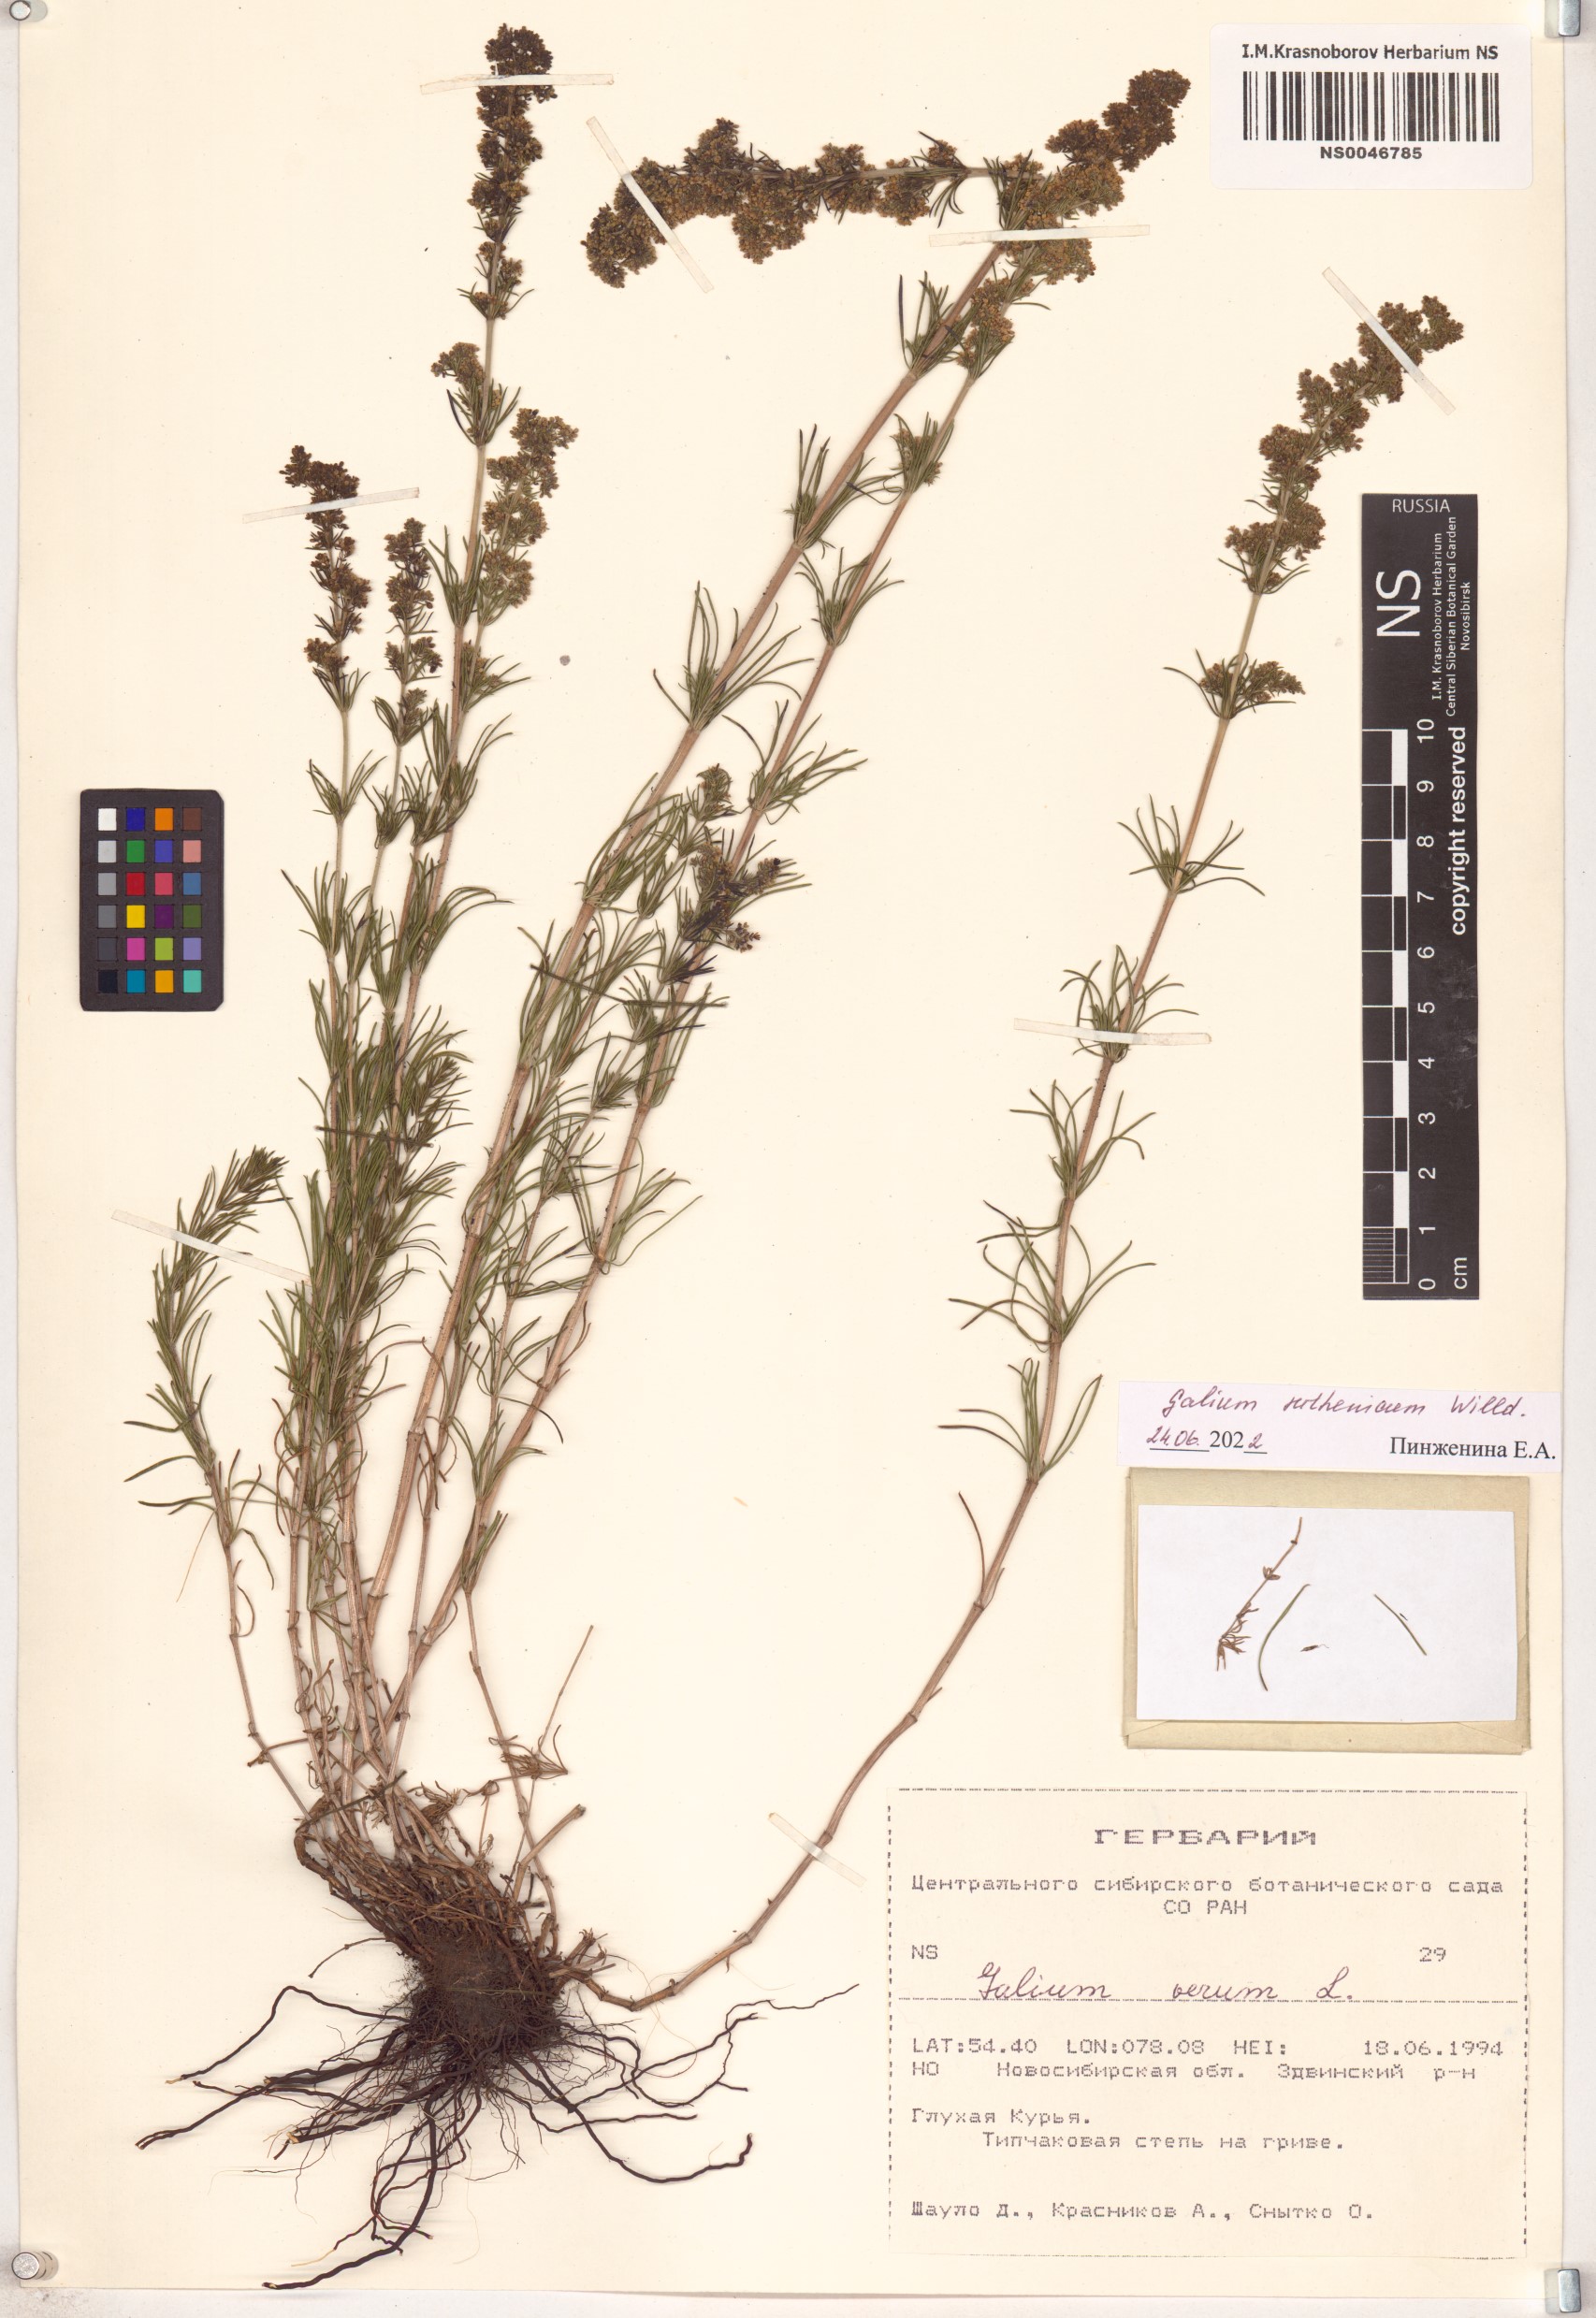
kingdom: Plantae
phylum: Tracheophyta
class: Magnoliopsida
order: Gentianales
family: Rubiaceae
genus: Galium
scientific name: Galium verum
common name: Lady's bedstraw
